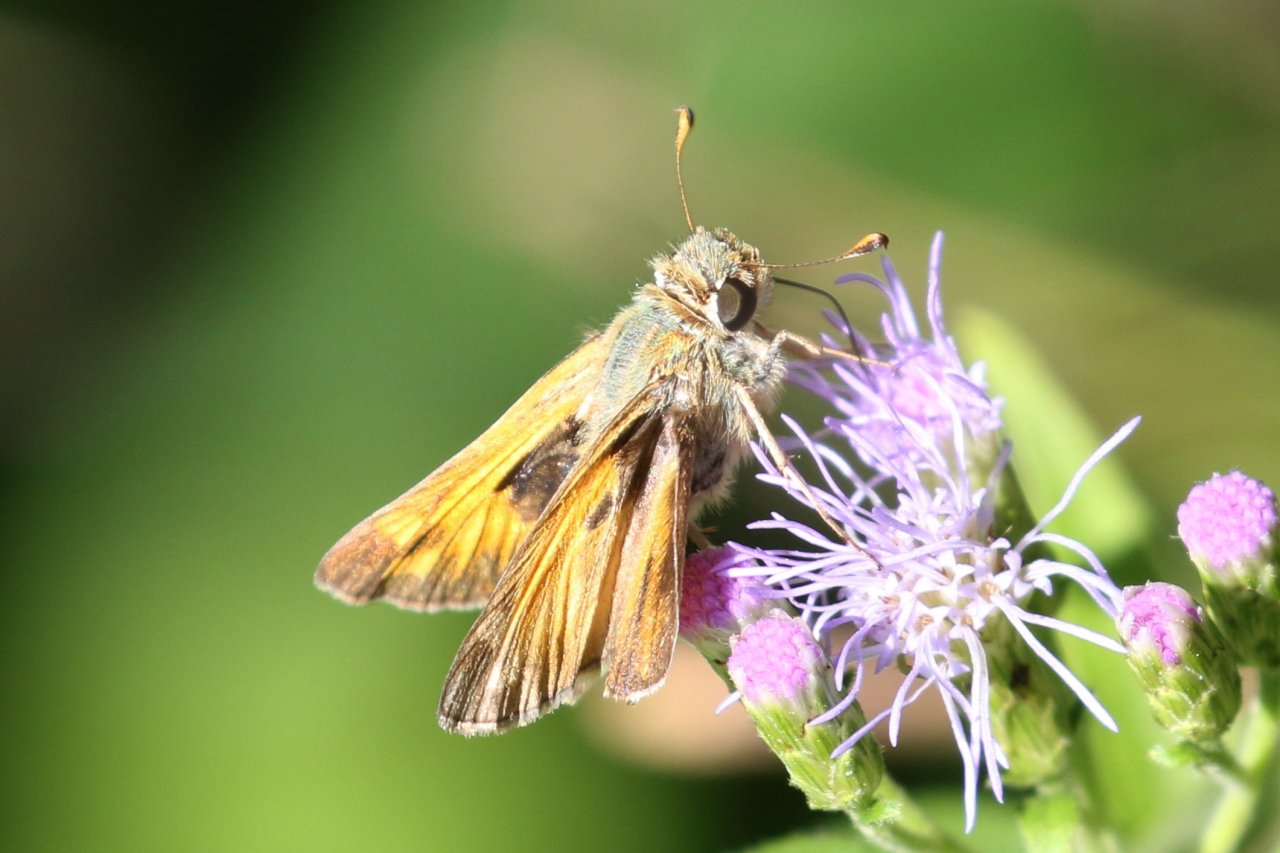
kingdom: Animalia
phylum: Arthropoda
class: Insecta
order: Lepidoptera
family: Hesperiidae
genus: Atalopedes
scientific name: Atalopedes campestris
